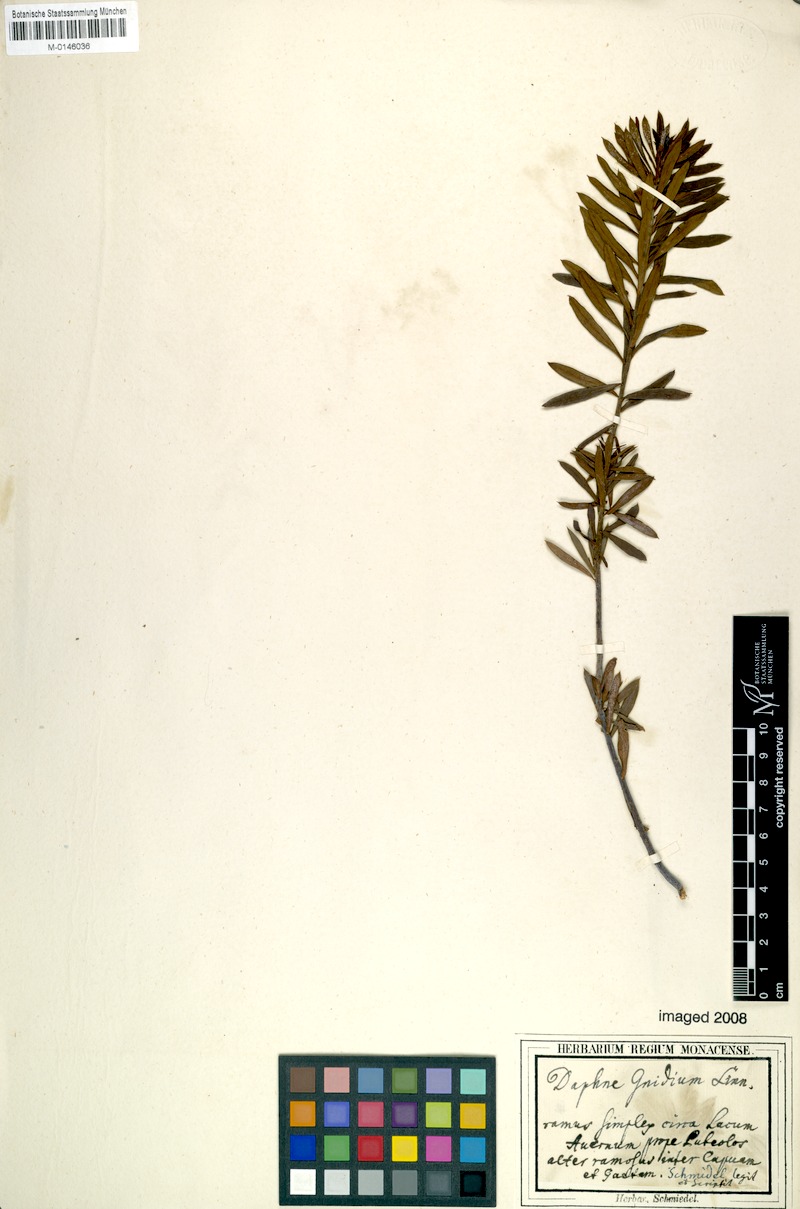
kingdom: Plantae
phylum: Tracheophyta
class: Magnoliopsida
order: Malvales
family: Thymelaeaceae
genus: Daphne
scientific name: Daphne gnidium
